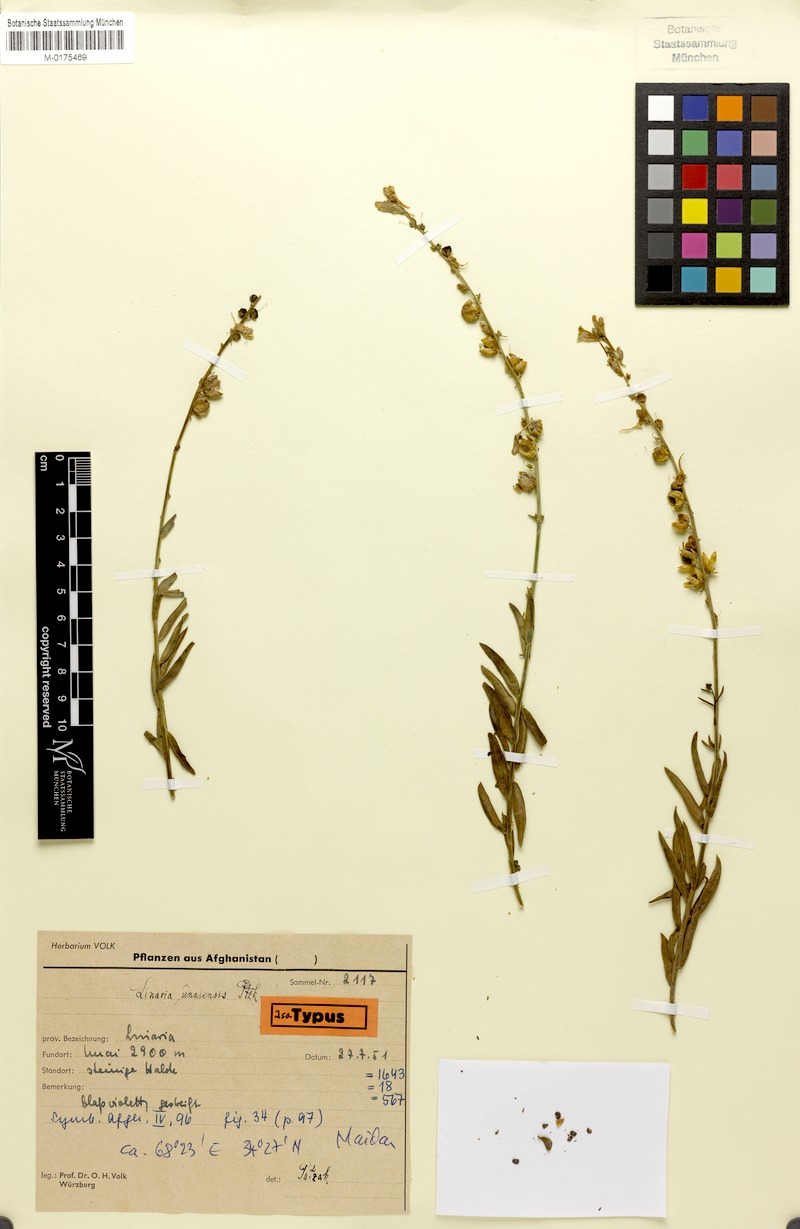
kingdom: Plantae
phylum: Tracheophyta
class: Magnoliopsida
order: Lamiales
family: Plantaginaceae
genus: Linaria
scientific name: Linaria unaiensis
